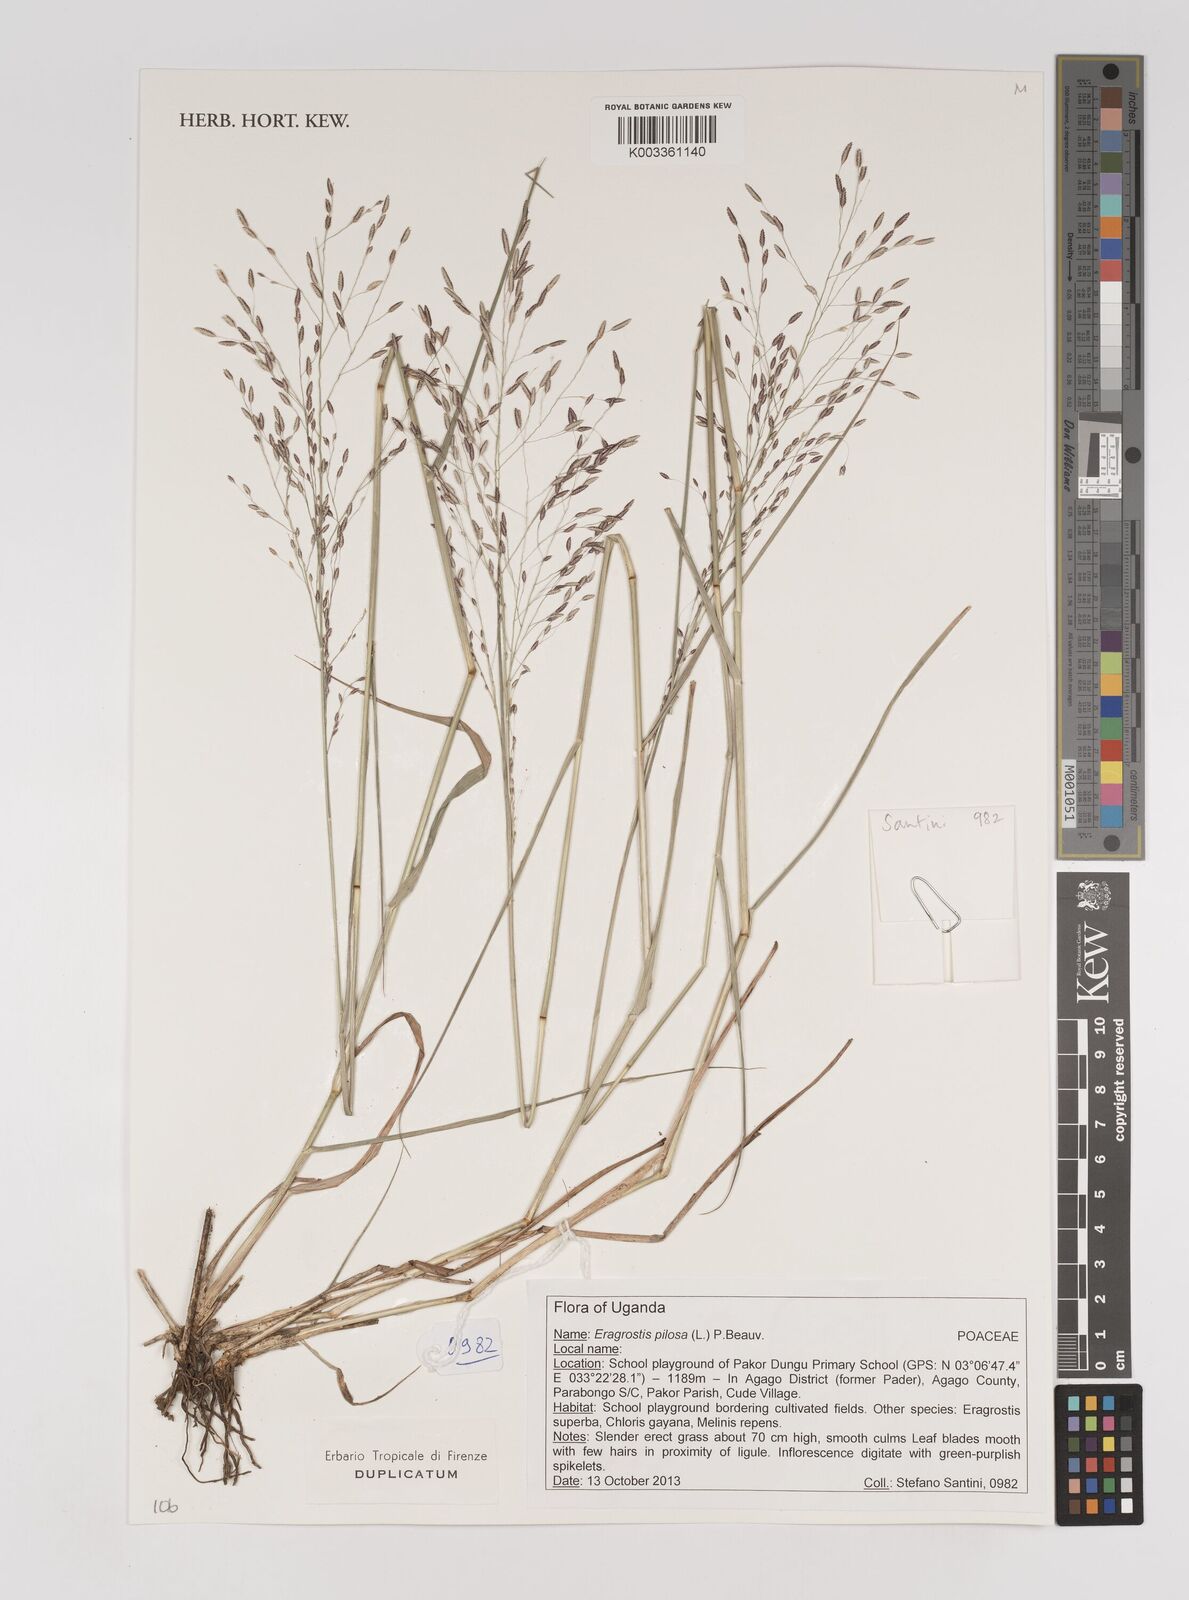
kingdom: Plantae
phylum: Tracheophyta
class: Liliopsida
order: Poales
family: Poaceae
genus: Eragrostis
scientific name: Eragrostis pilosa
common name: Indian lovegrass
